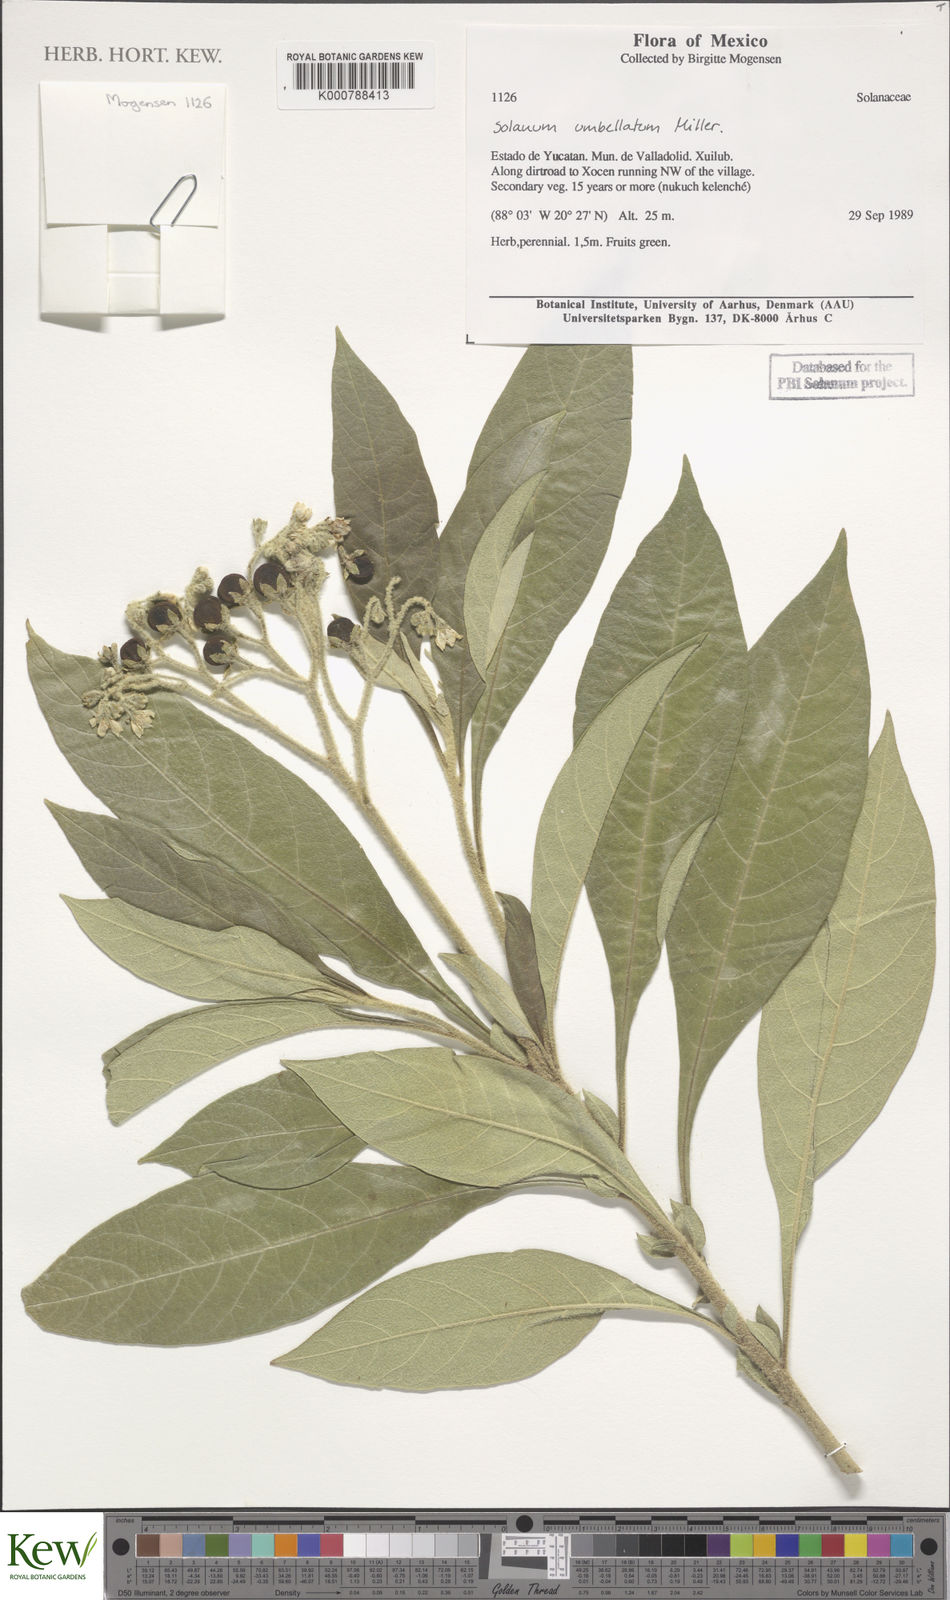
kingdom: Plantae
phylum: Tracheophyta
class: Magnoliopsida
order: Solanales
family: Solanaceae
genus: Solanum
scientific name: Solanum tricuspidatum
